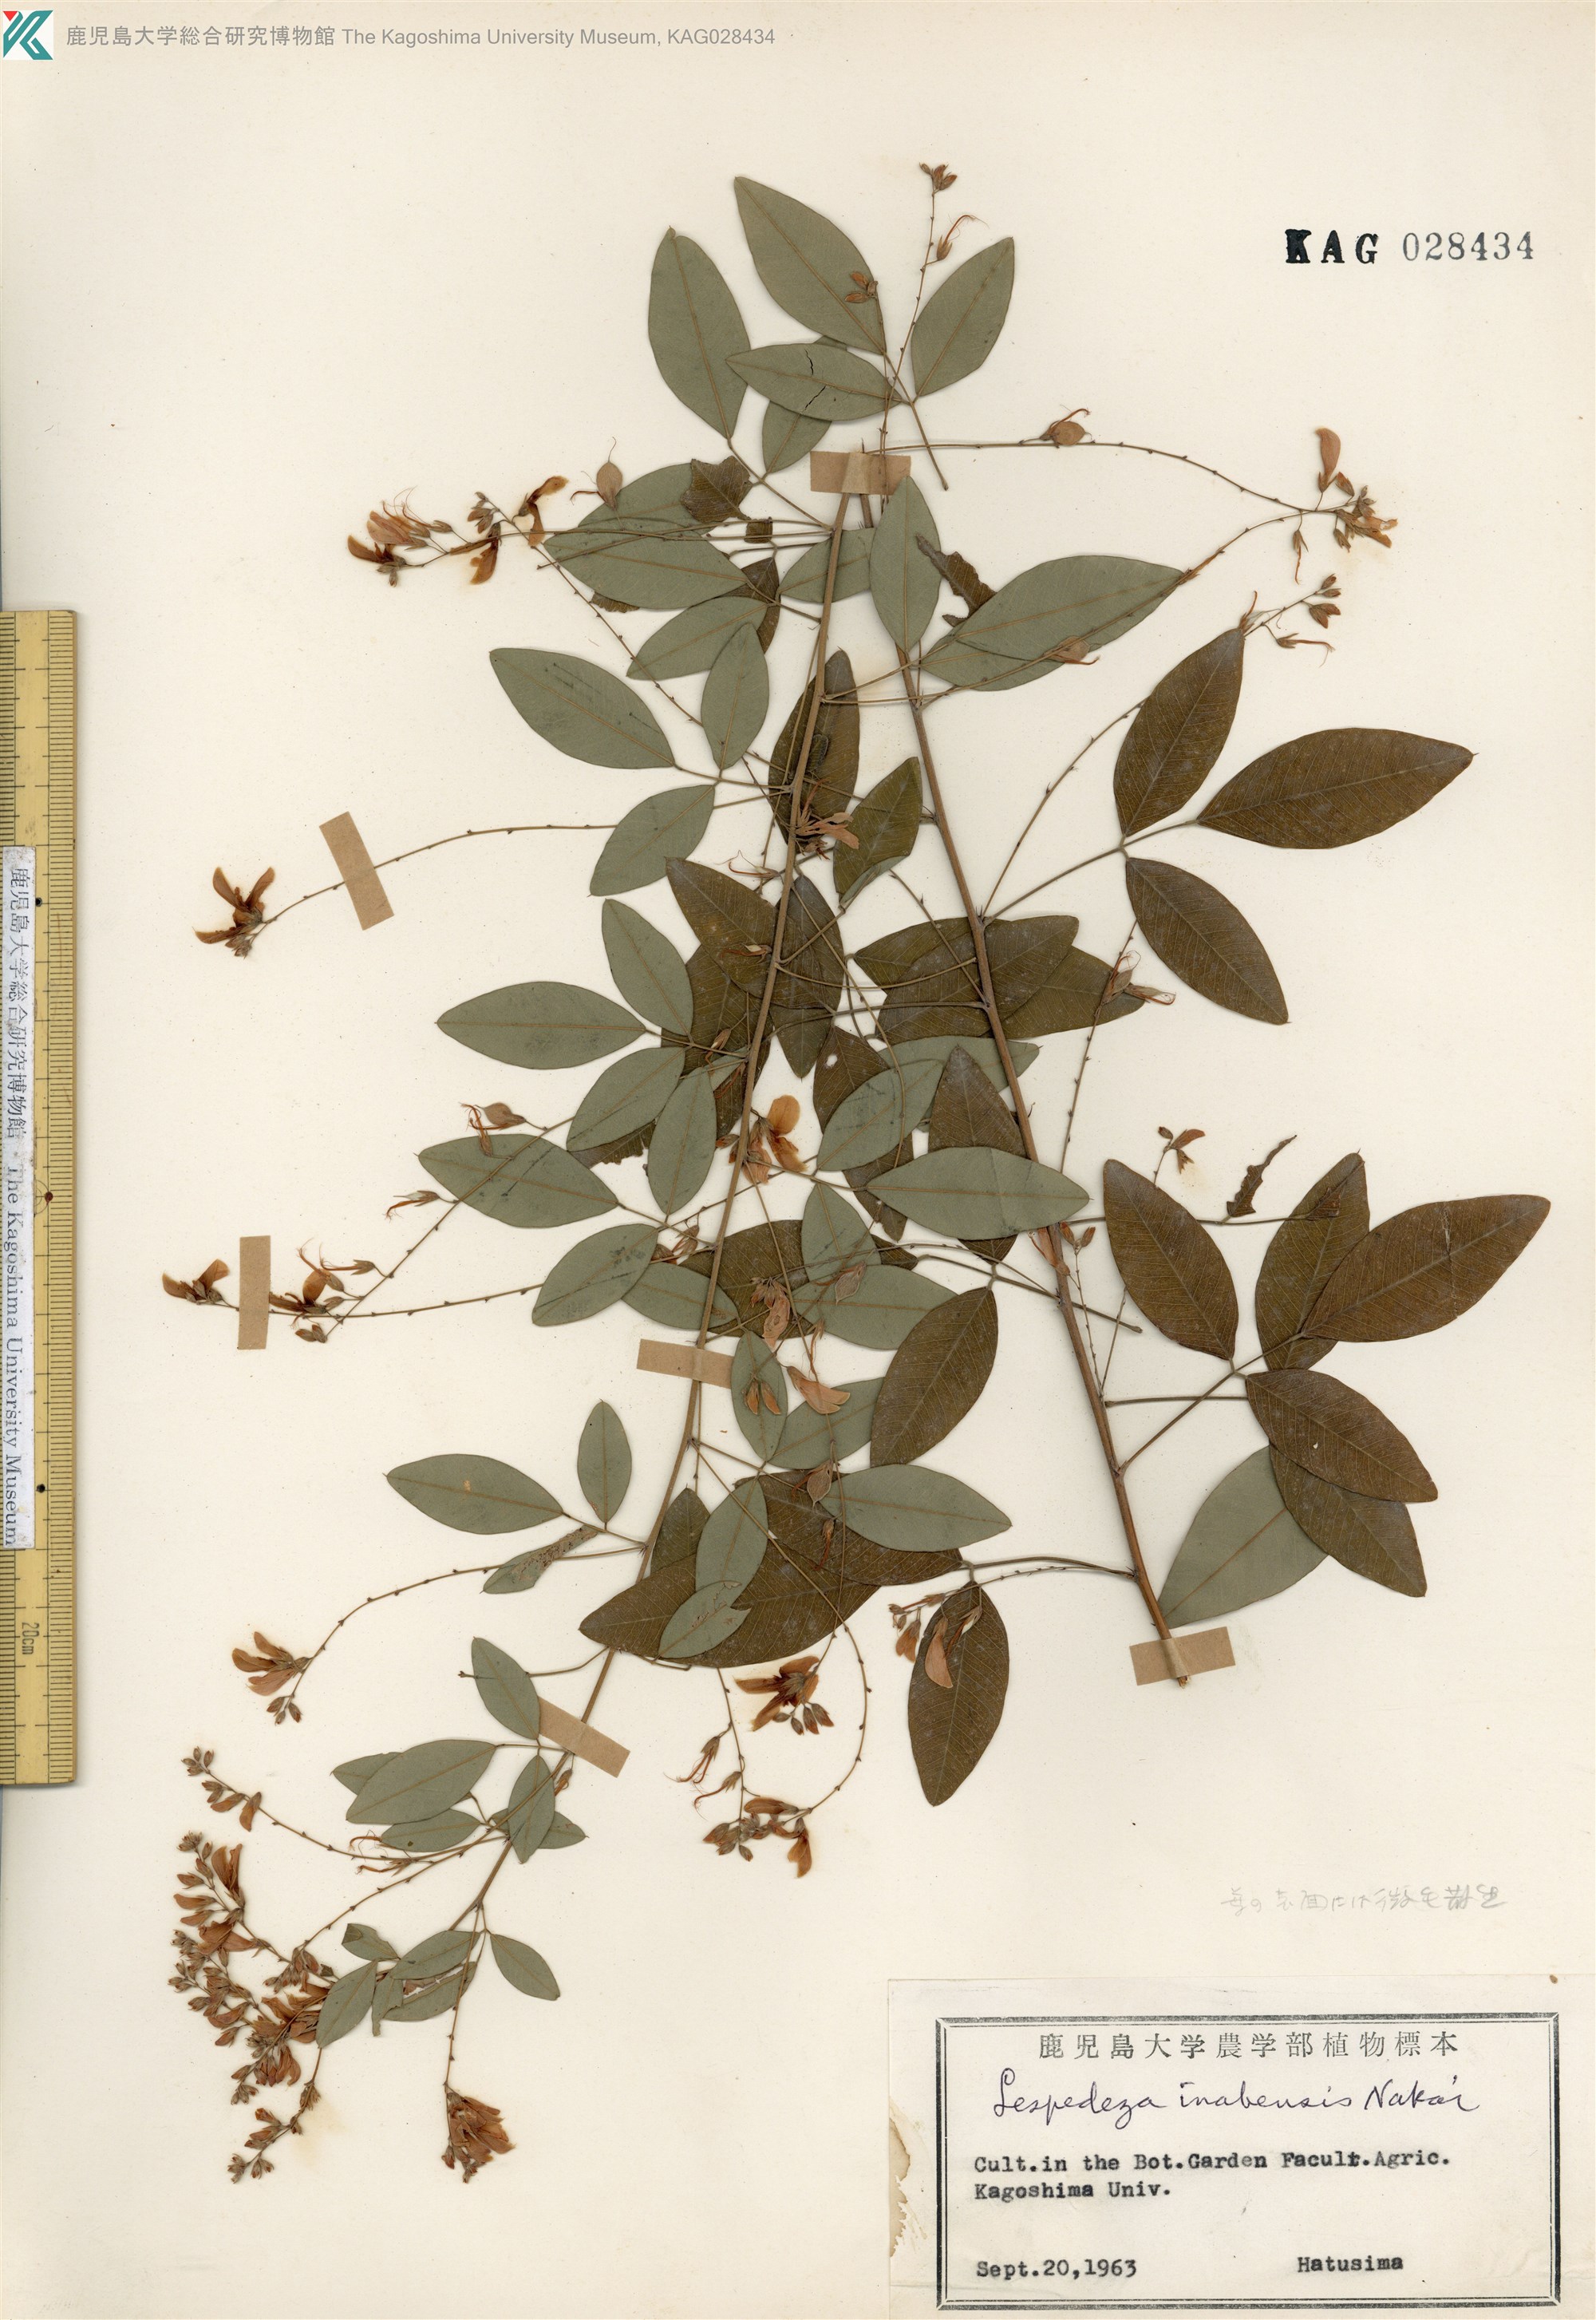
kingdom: Plantae
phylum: Tracheophyta
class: Magnoliopsida
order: Fabales
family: Fabaceae
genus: Lespedeza
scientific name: Lespedeza thunbergii
